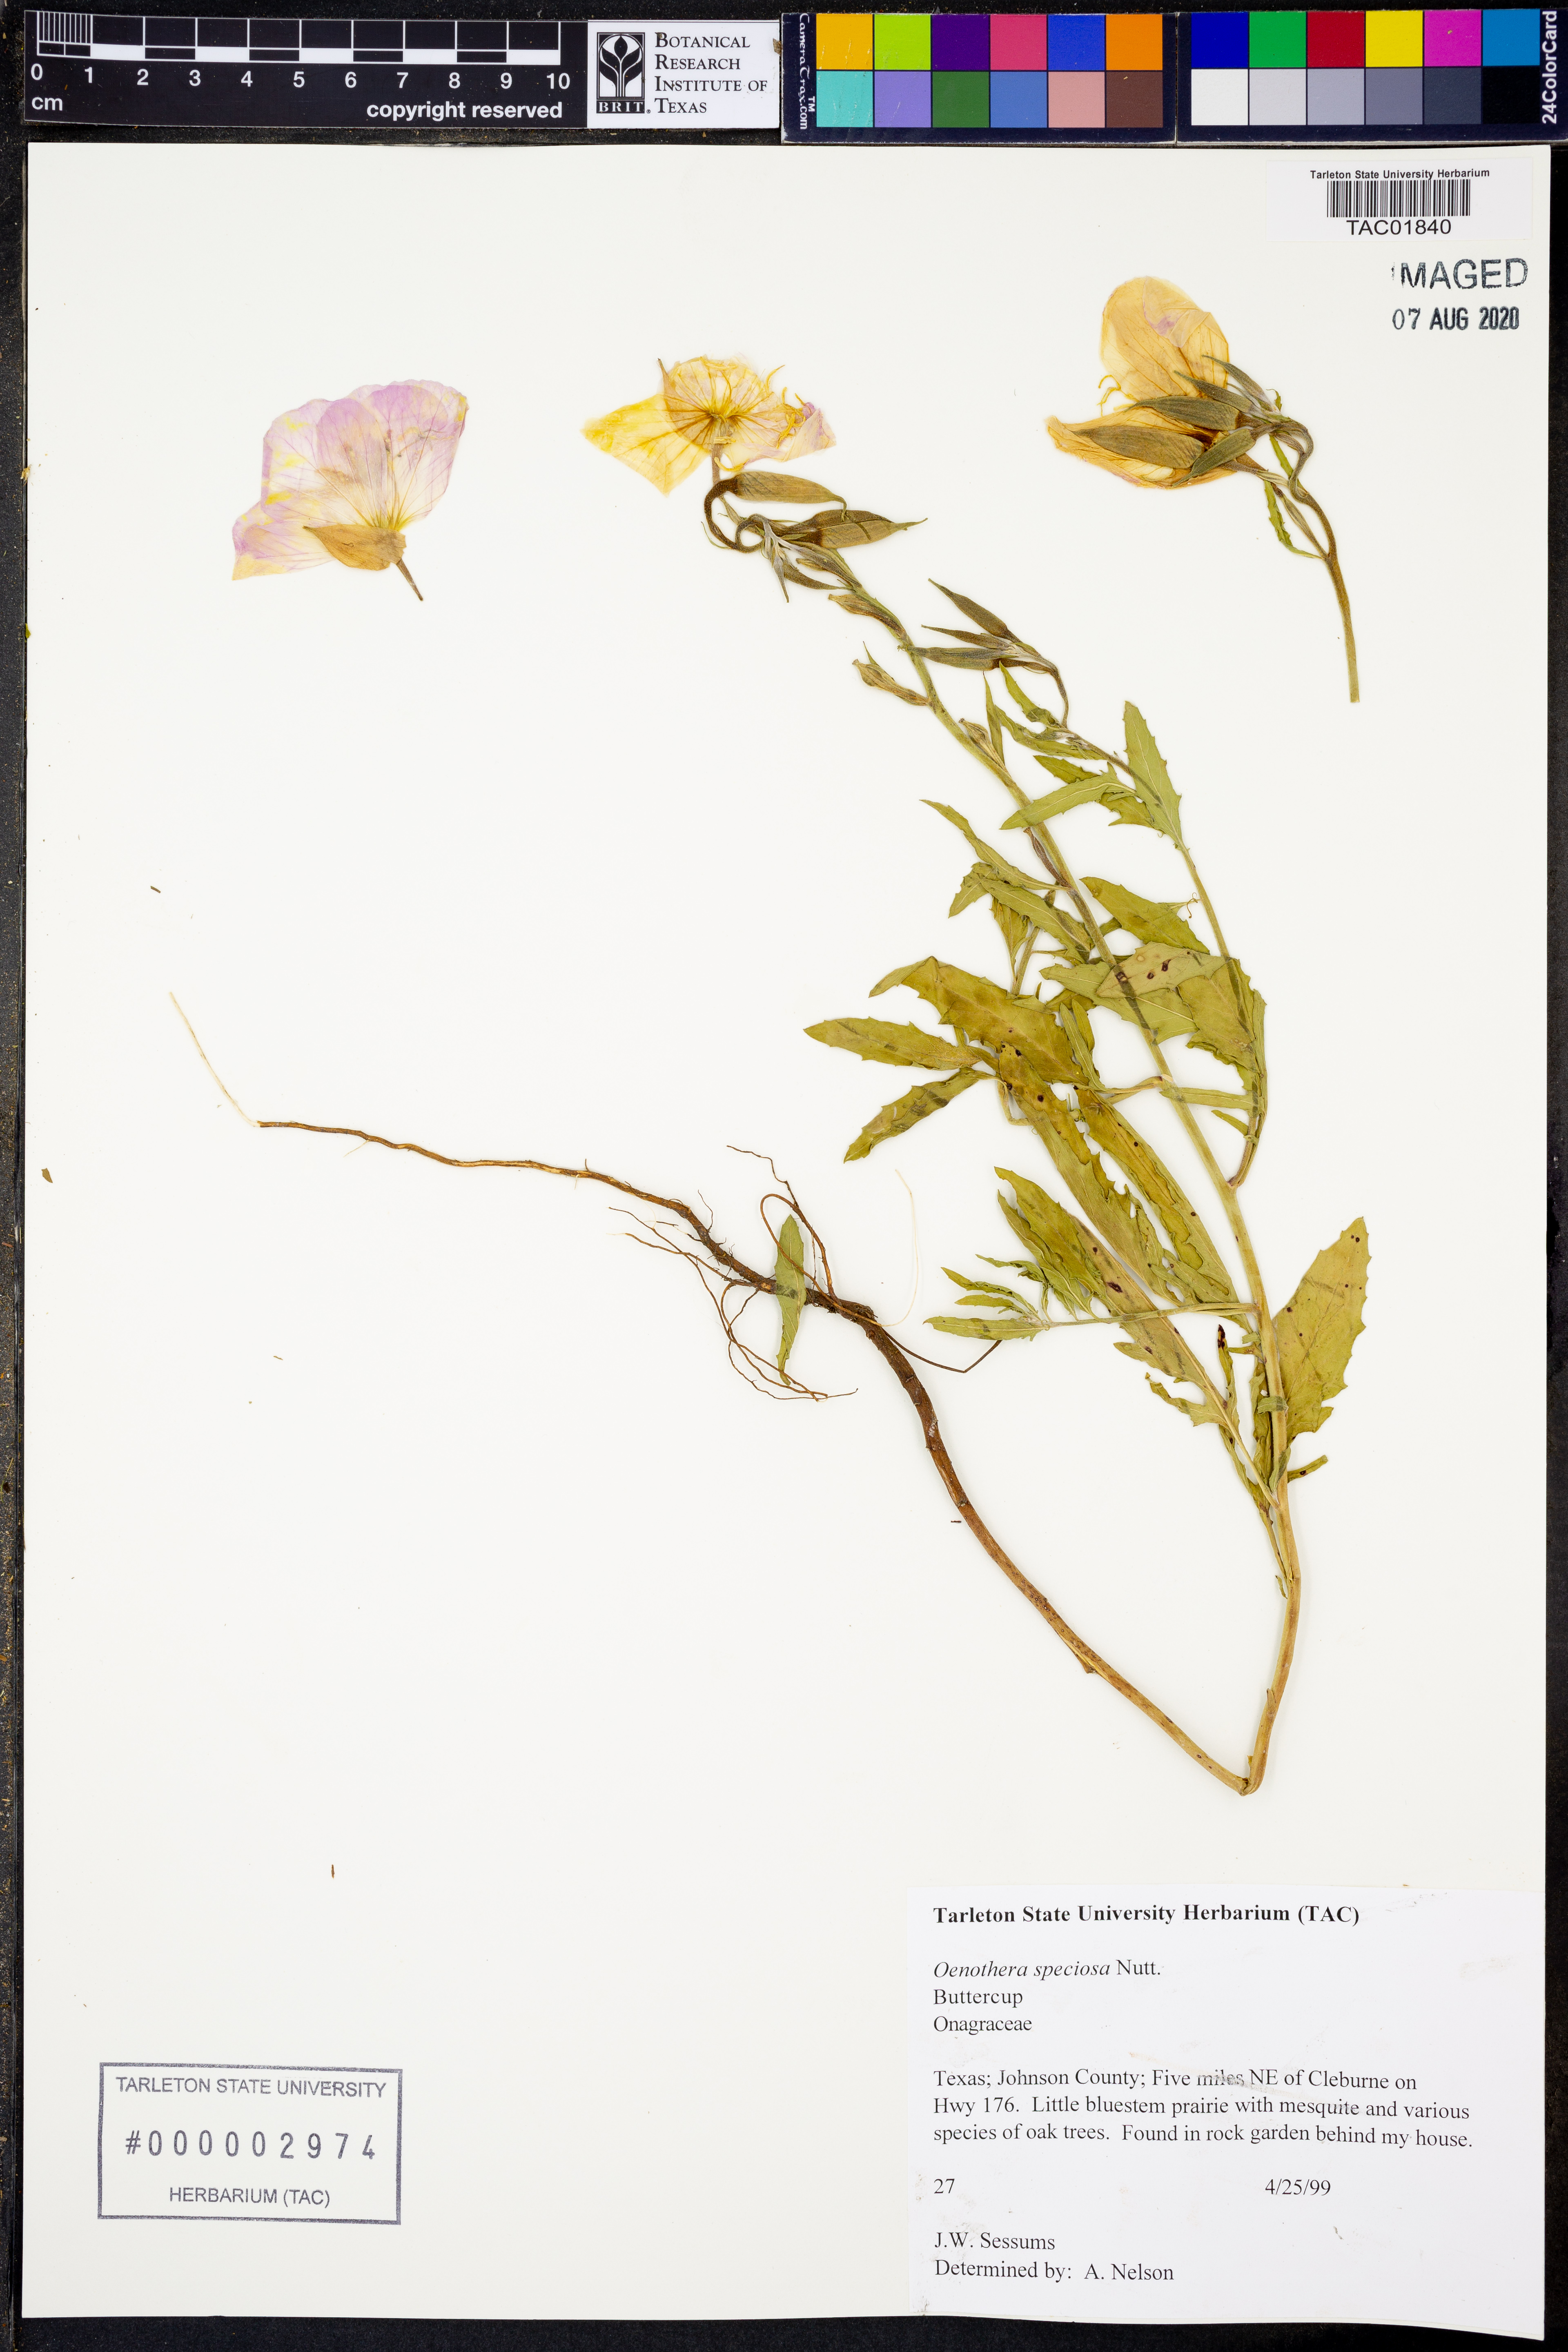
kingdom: Plantae
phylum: Tracheophyta
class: Magnoliopsida
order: Myrtales
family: Onagraceae
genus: Oenothera
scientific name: Oenothera speciosa
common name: White evening-primrose
